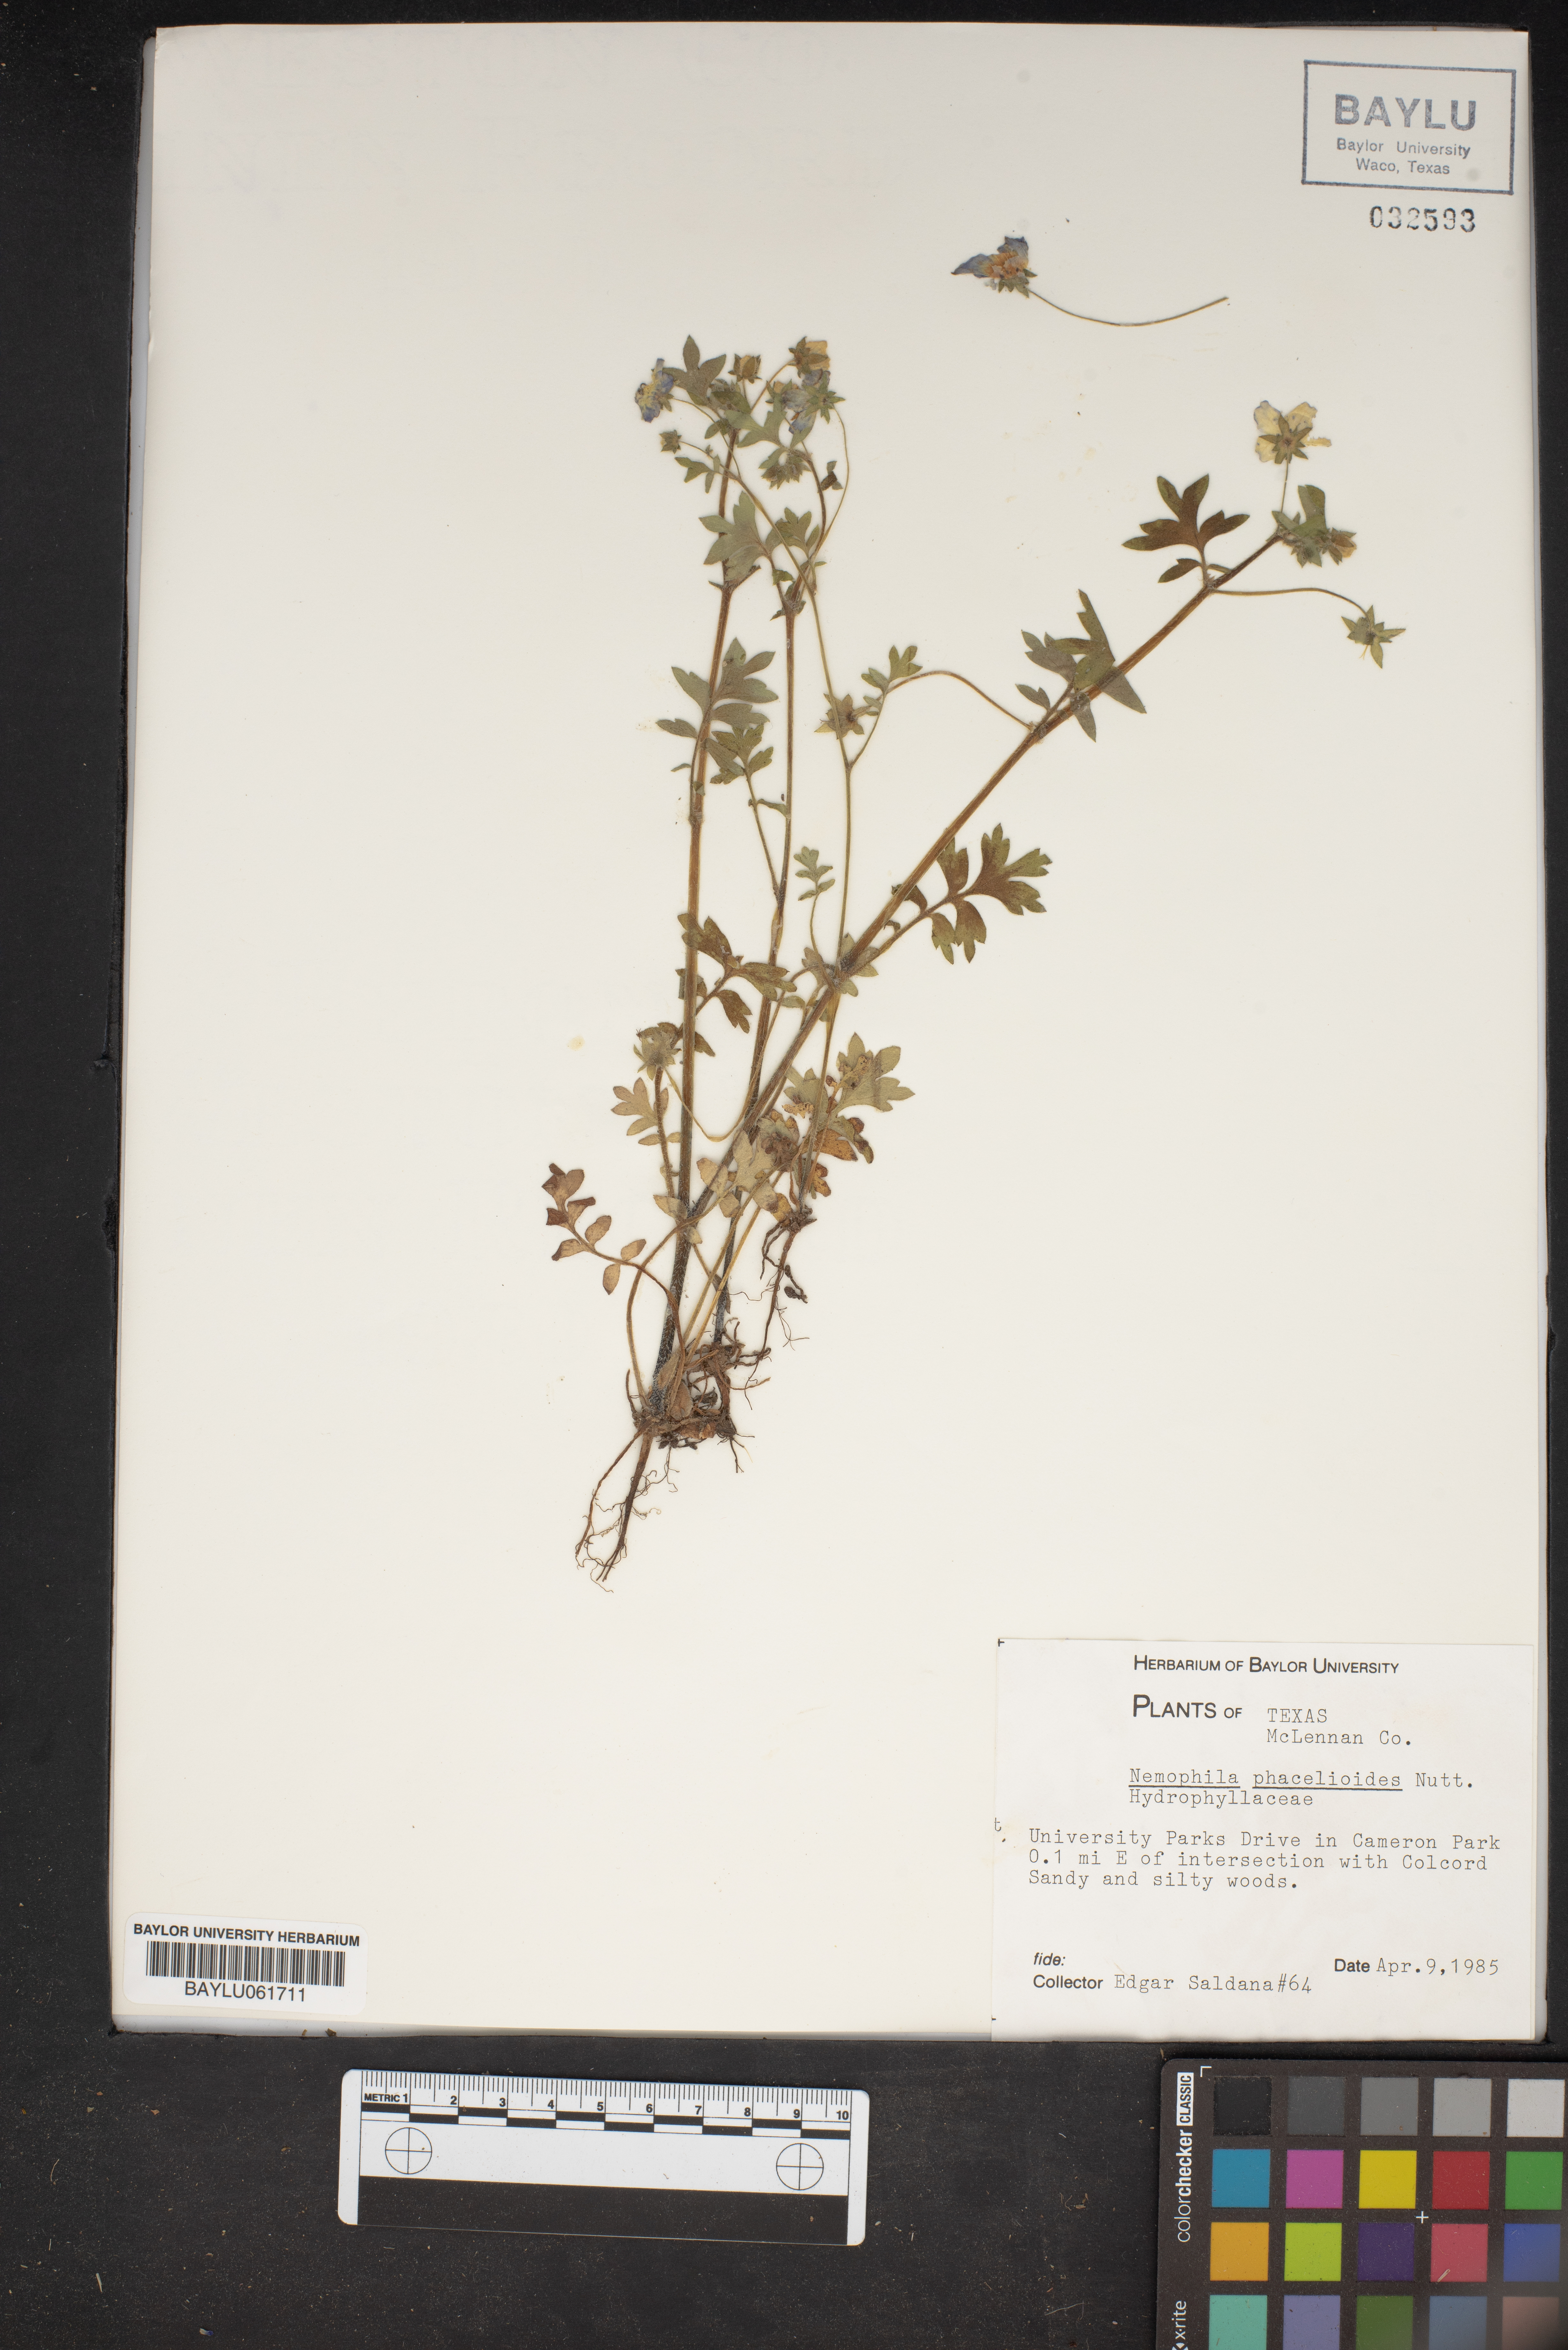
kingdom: Plantae
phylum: Tracheophyta
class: Magnoliopsida
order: Boraginales
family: Hydrophyllaceae
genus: Nemophila
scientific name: Nemophila phacelioides
